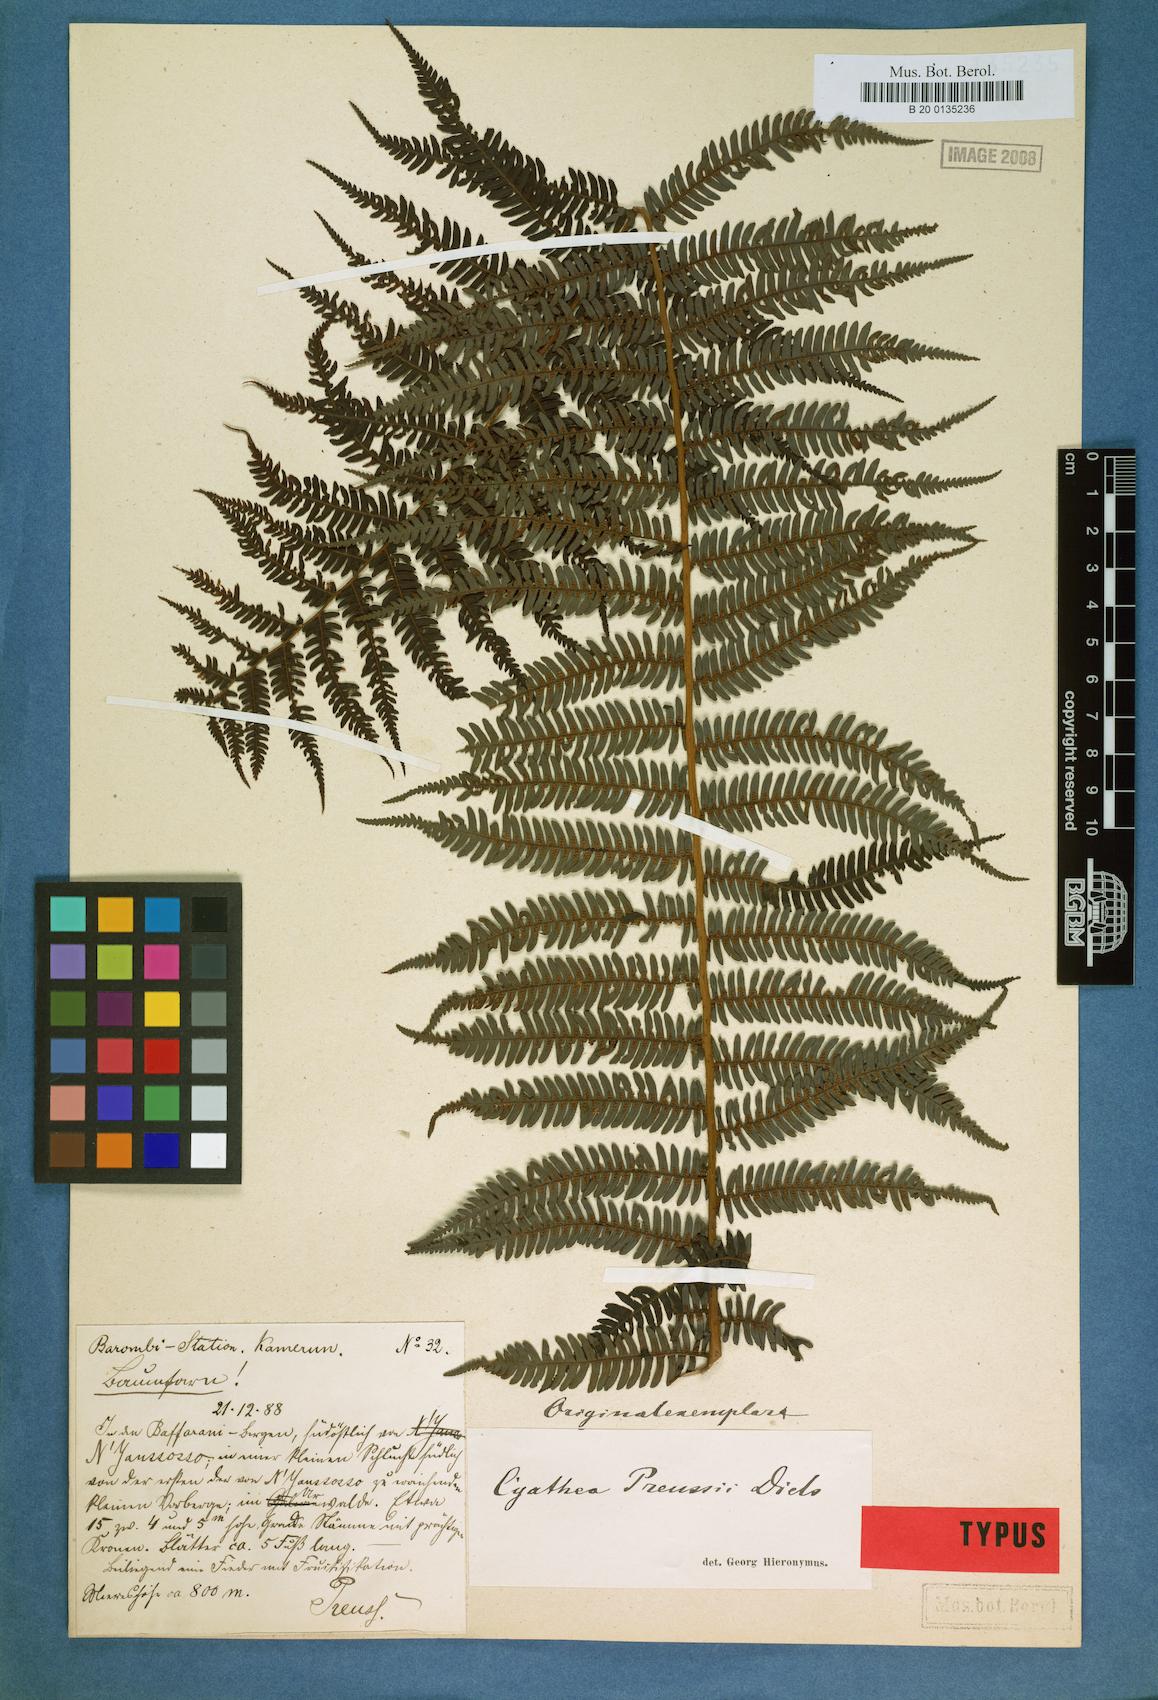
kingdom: Plantae
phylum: Tracheophyta
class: Polypodiopsida
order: Cyatheales
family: Cyatheaceae
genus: Alsophila
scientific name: Alsophila manniana
